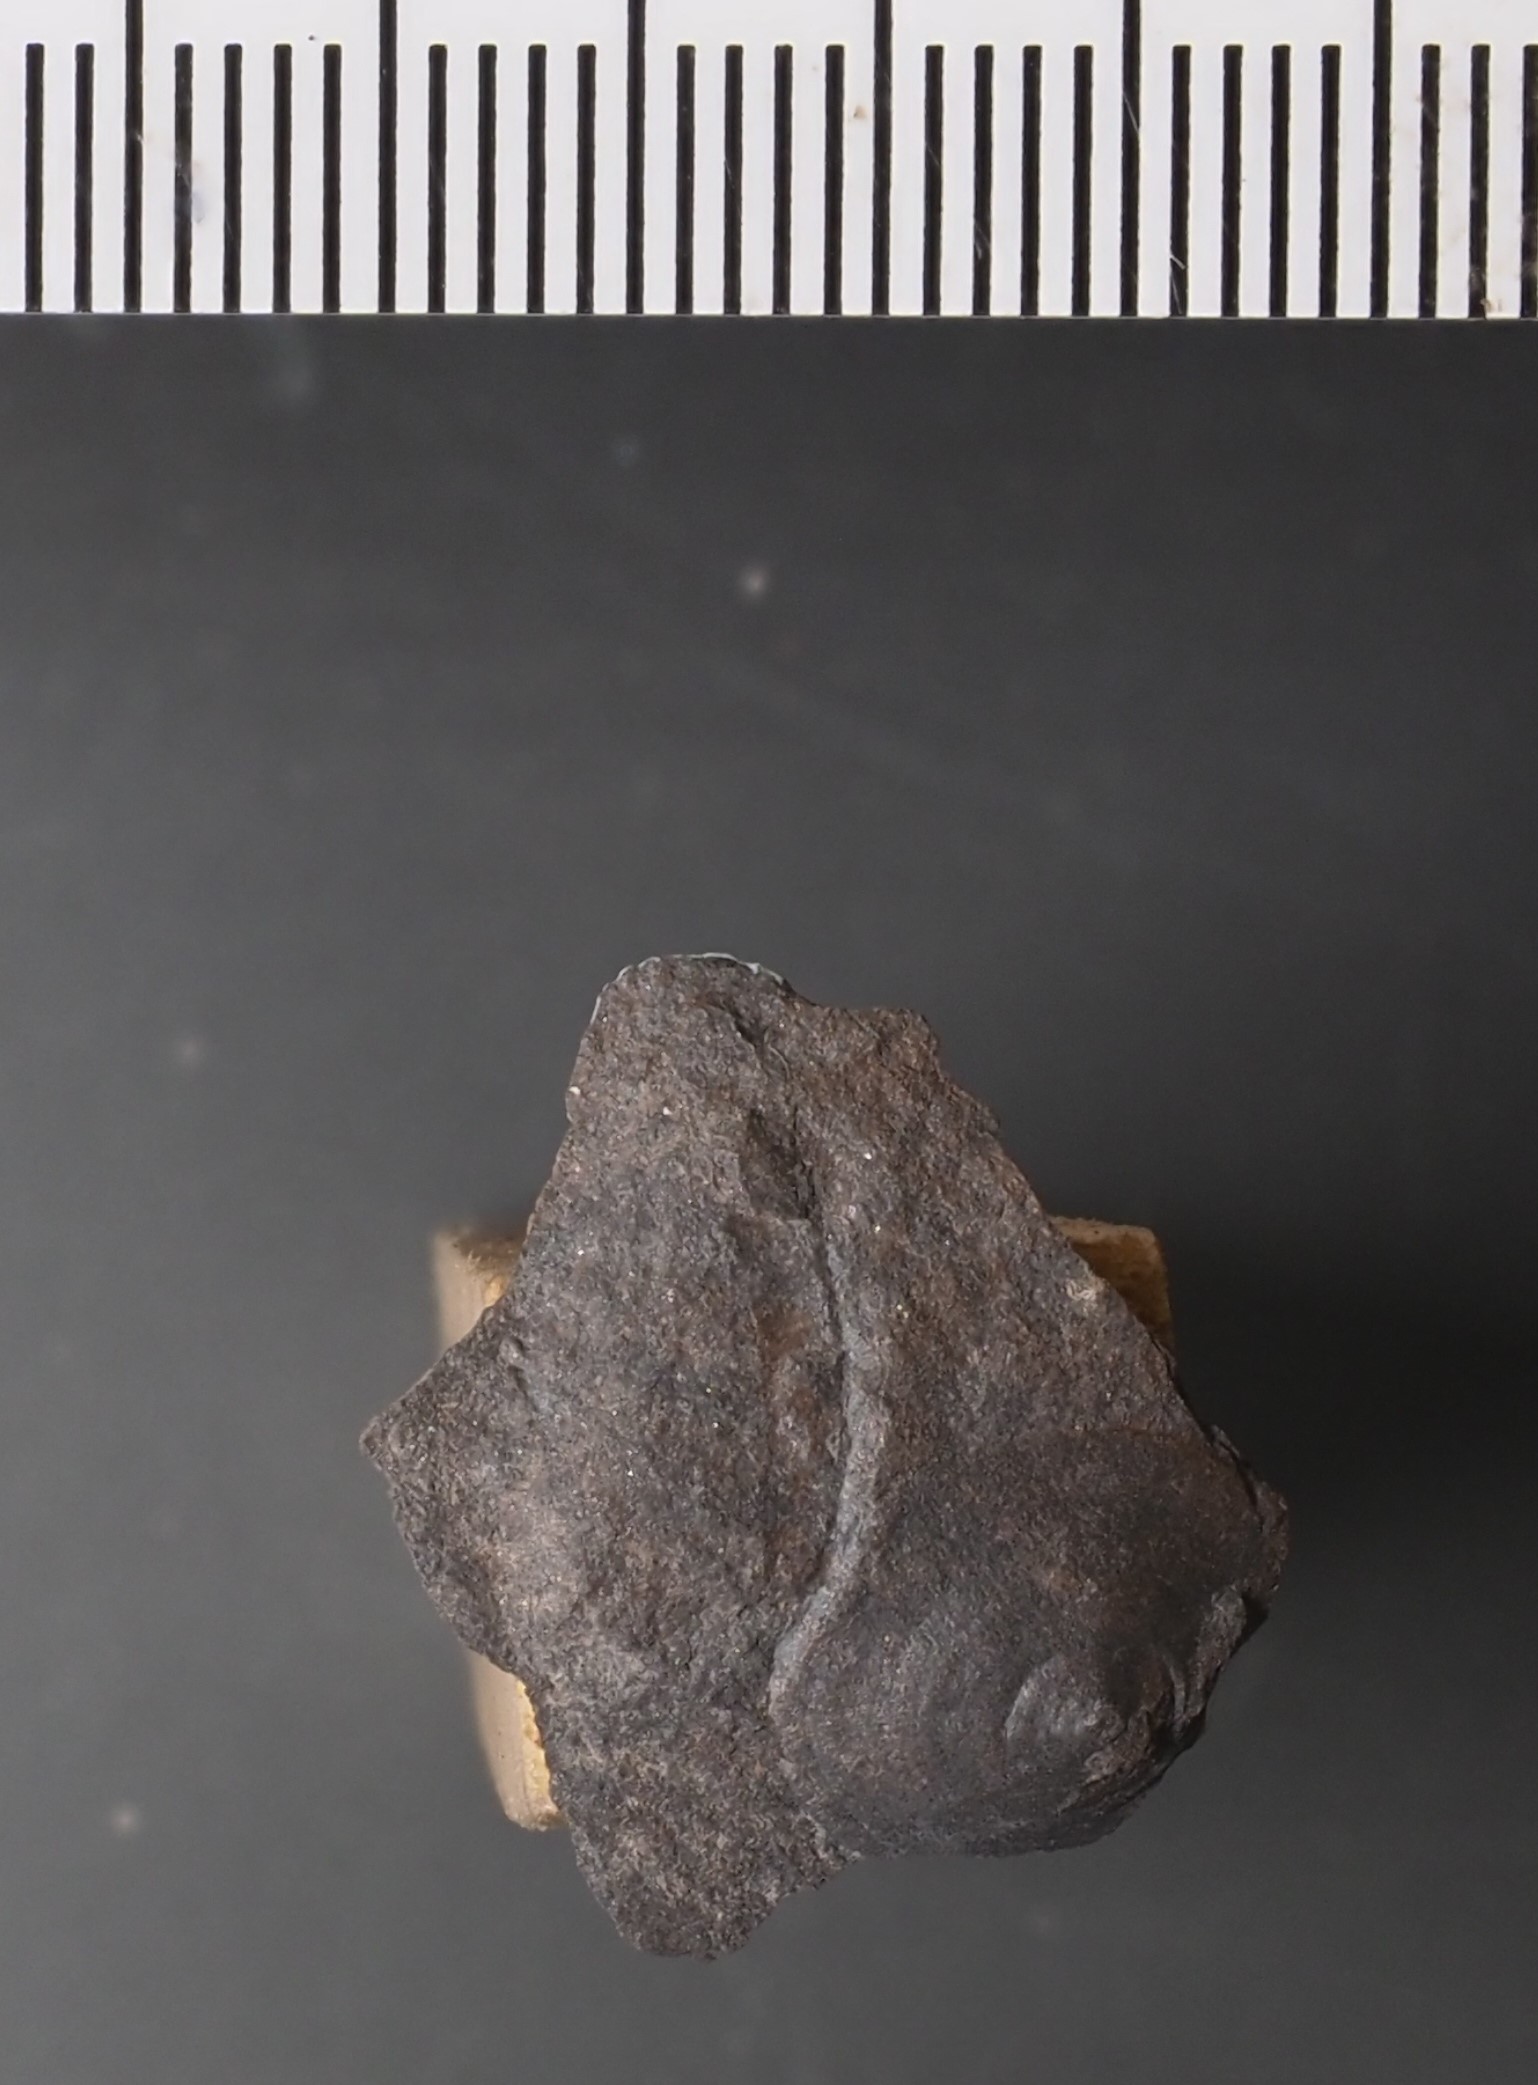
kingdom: Animalia
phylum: Brachiopoda
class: Craniata
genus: Merglia
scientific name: Merglia
